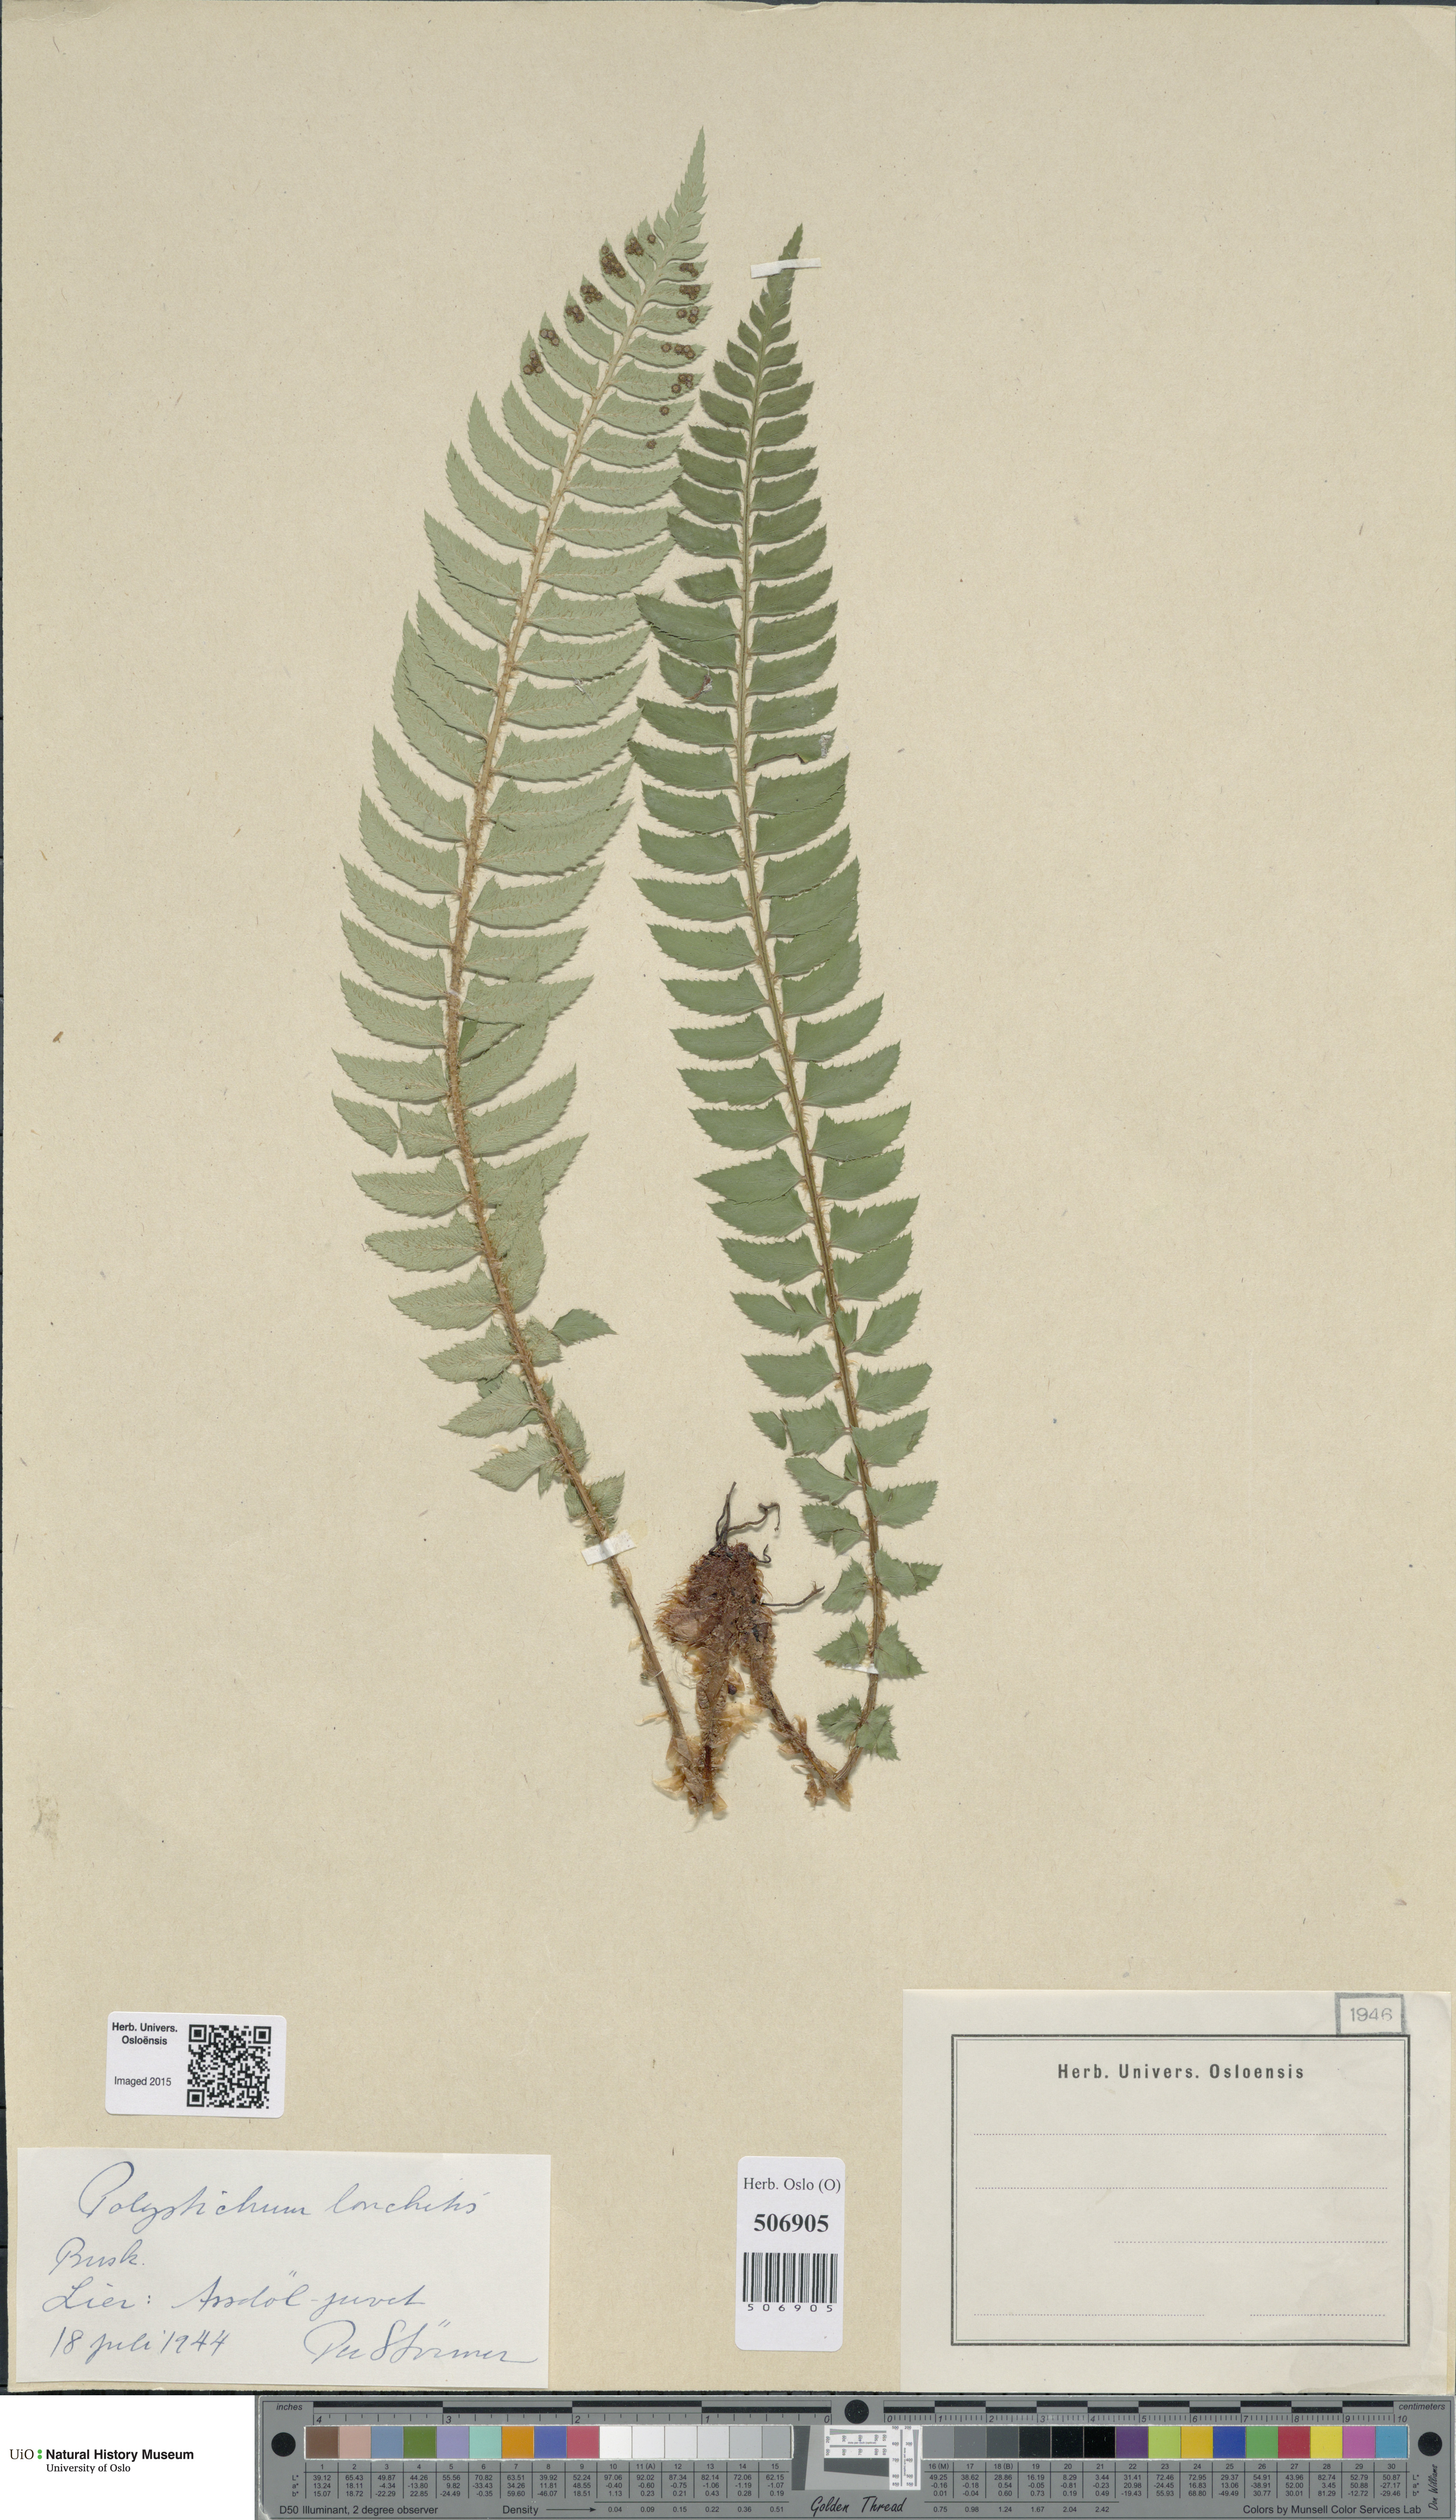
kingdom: Plantae
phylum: Tracheophyta
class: Polypodiopsida
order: Polypodiales
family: Dryopteridaceae
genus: Polystichum
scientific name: Polystichum lonchitis
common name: Holly fern
